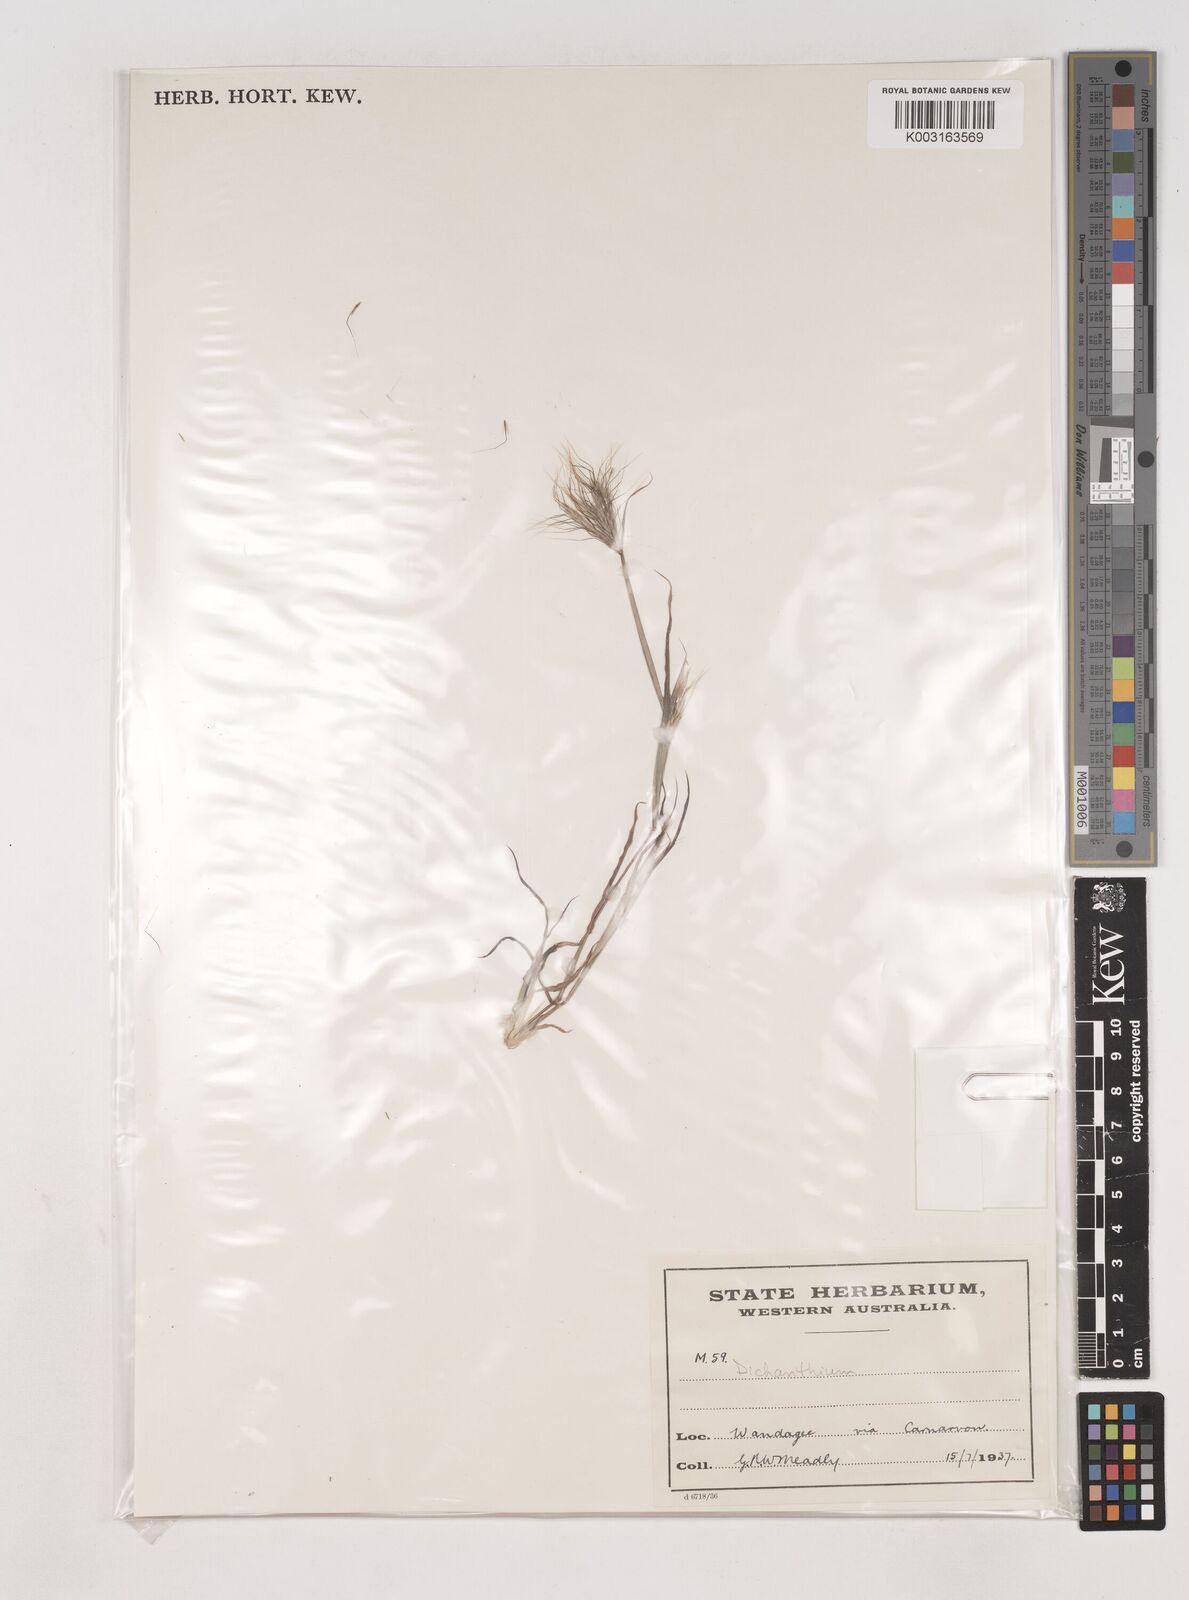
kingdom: Plantae
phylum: Tracheophyta
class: Liliopsida
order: Poales
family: Poaceae
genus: Dichanthium
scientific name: Dichanthium
